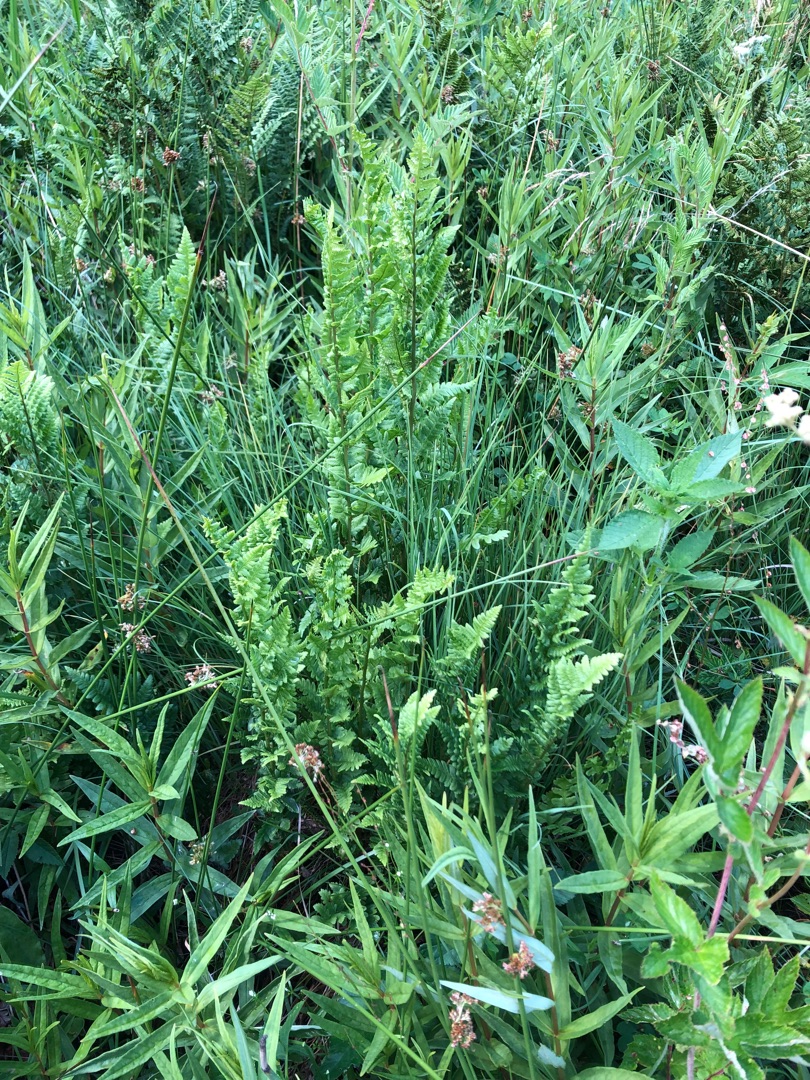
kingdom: Plantae
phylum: Tracheophyta
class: Polypodiopsida
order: Polypodiales
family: Dryopteridaceae
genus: Dryopteris
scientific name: Dryopteris cristata
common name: Butfinnet mangeløv
